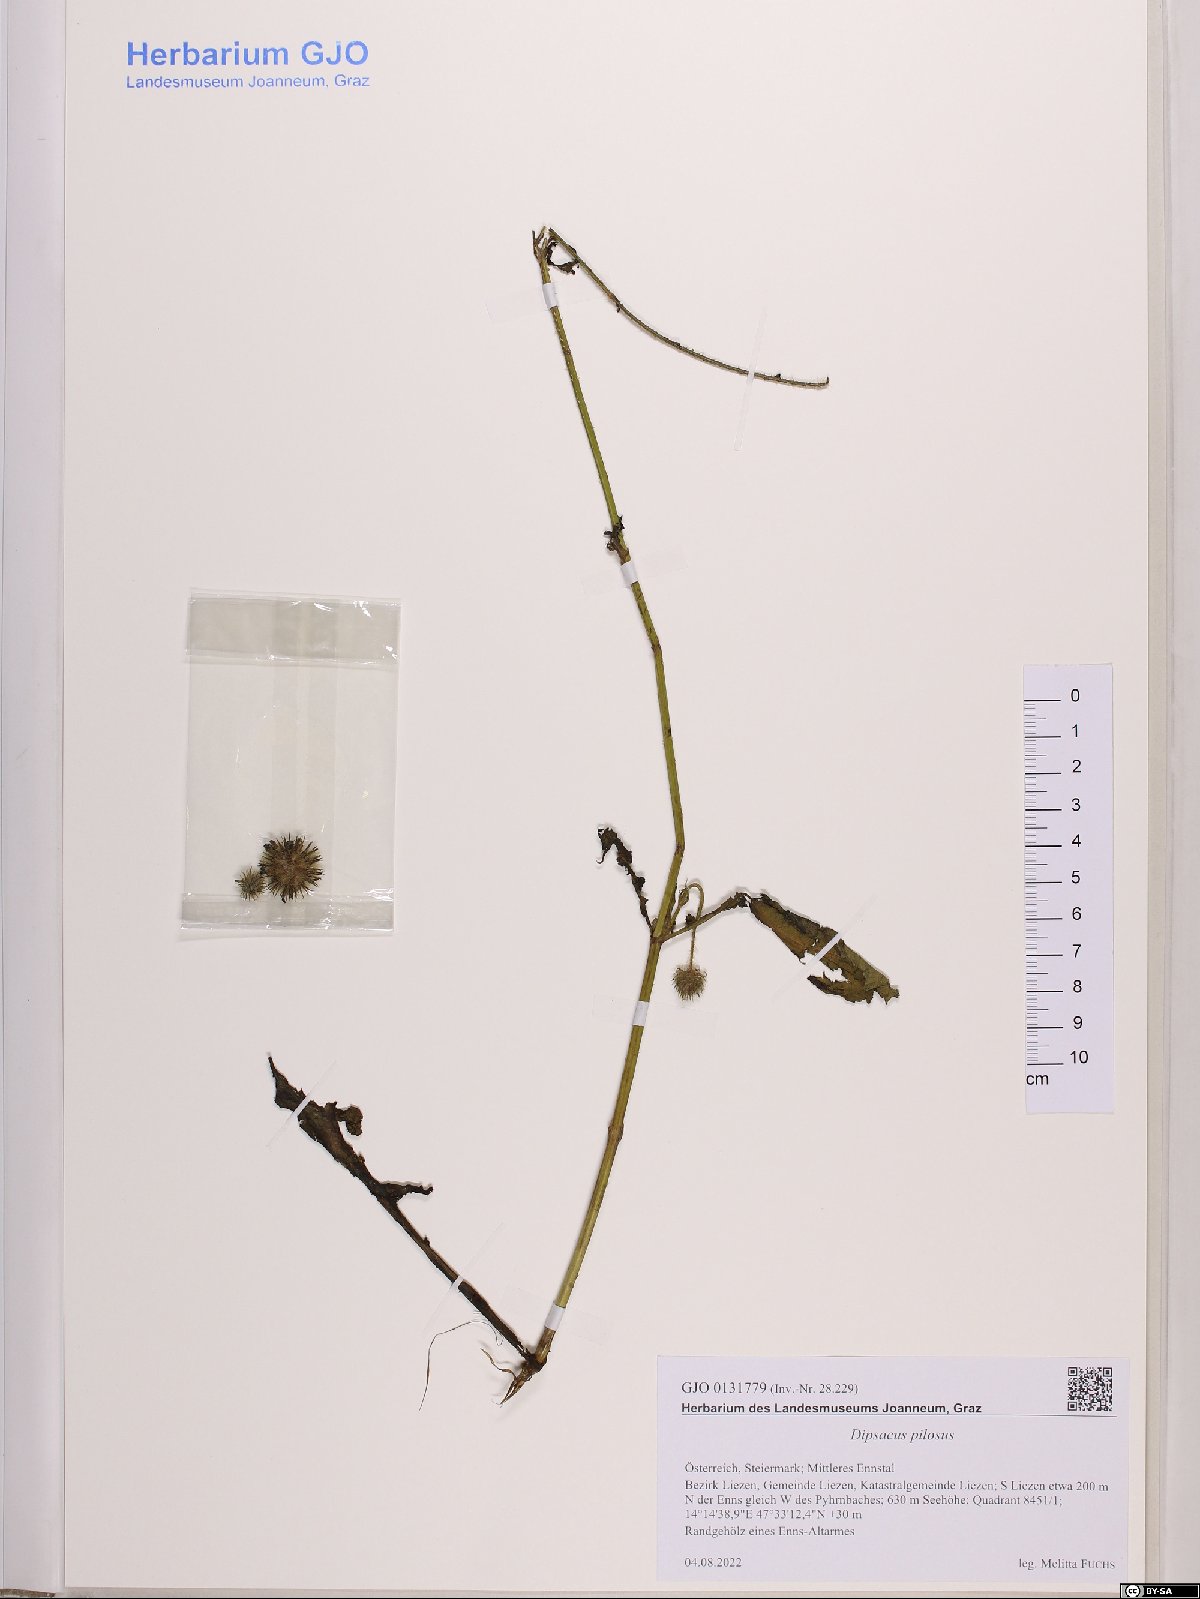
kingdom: Plantae
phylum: Tracheophyta
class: Magnoliopsida
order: Dipsacales
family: Caprifoliaceae
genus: Dipsacus
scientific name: Dipsacus pilosus
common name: Small teasel
